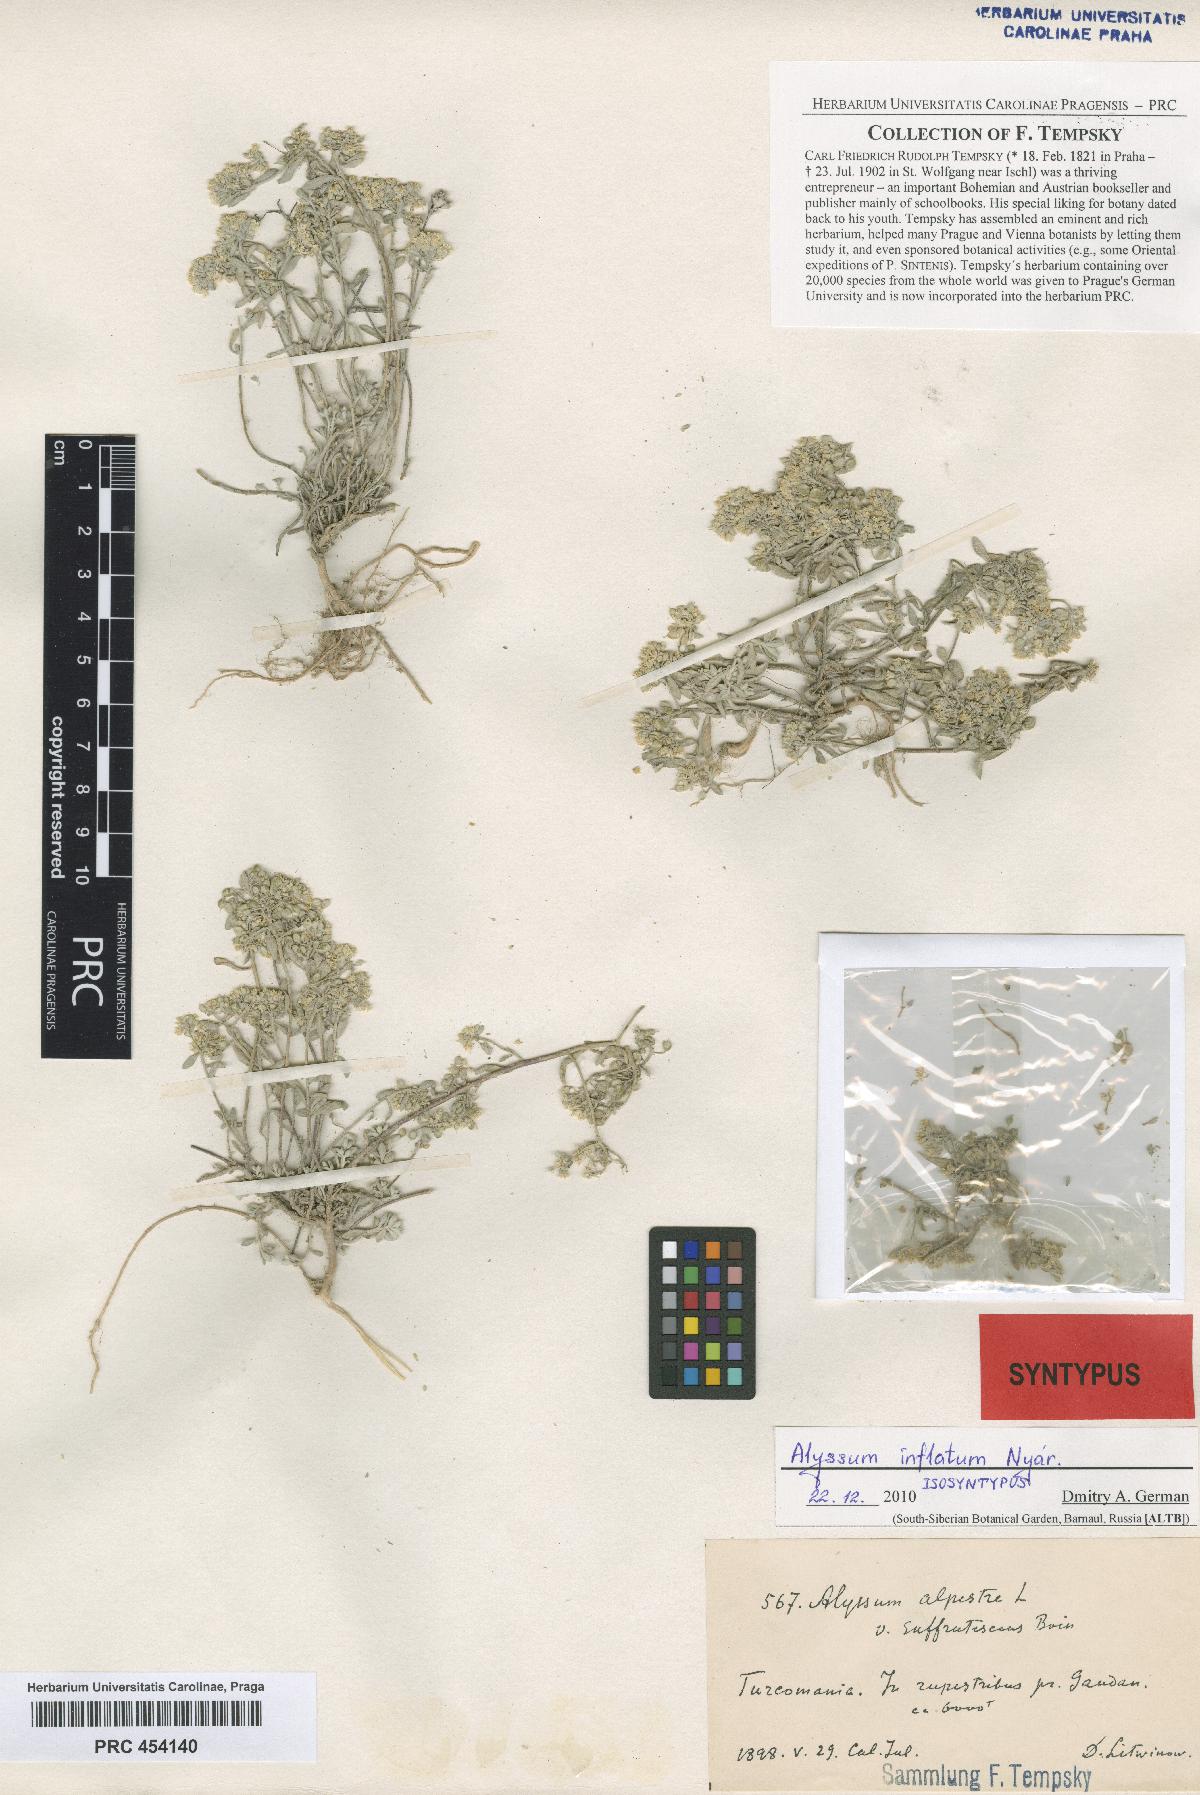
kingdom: Plantae
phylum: Tracheophyta
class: Magnoliopsida
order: Brassicales
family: Brassicaceae
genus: Odontarrhena
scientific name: Odontarrhena inflata
